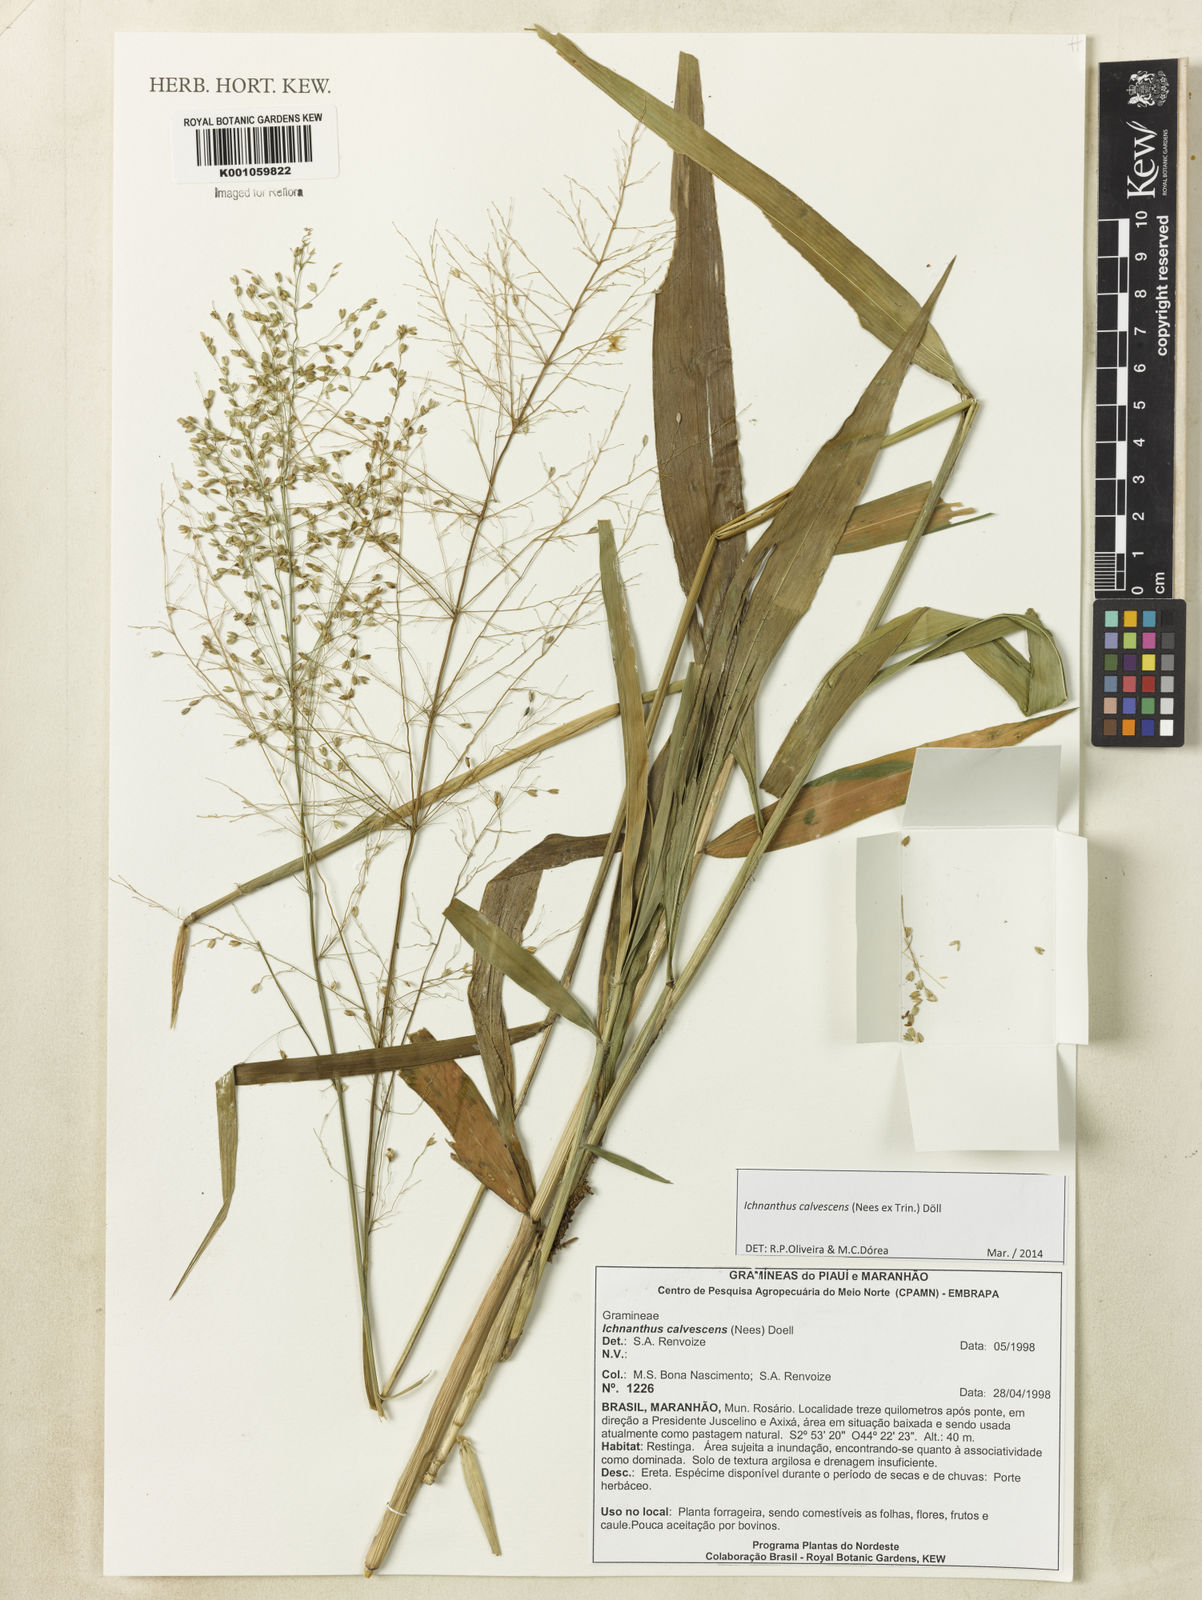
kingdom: Plantae
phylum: Tracheophyta
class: Liliopsida
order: Poales
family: Poaceae
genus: Ichnanthus
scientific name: Ichnanthus
